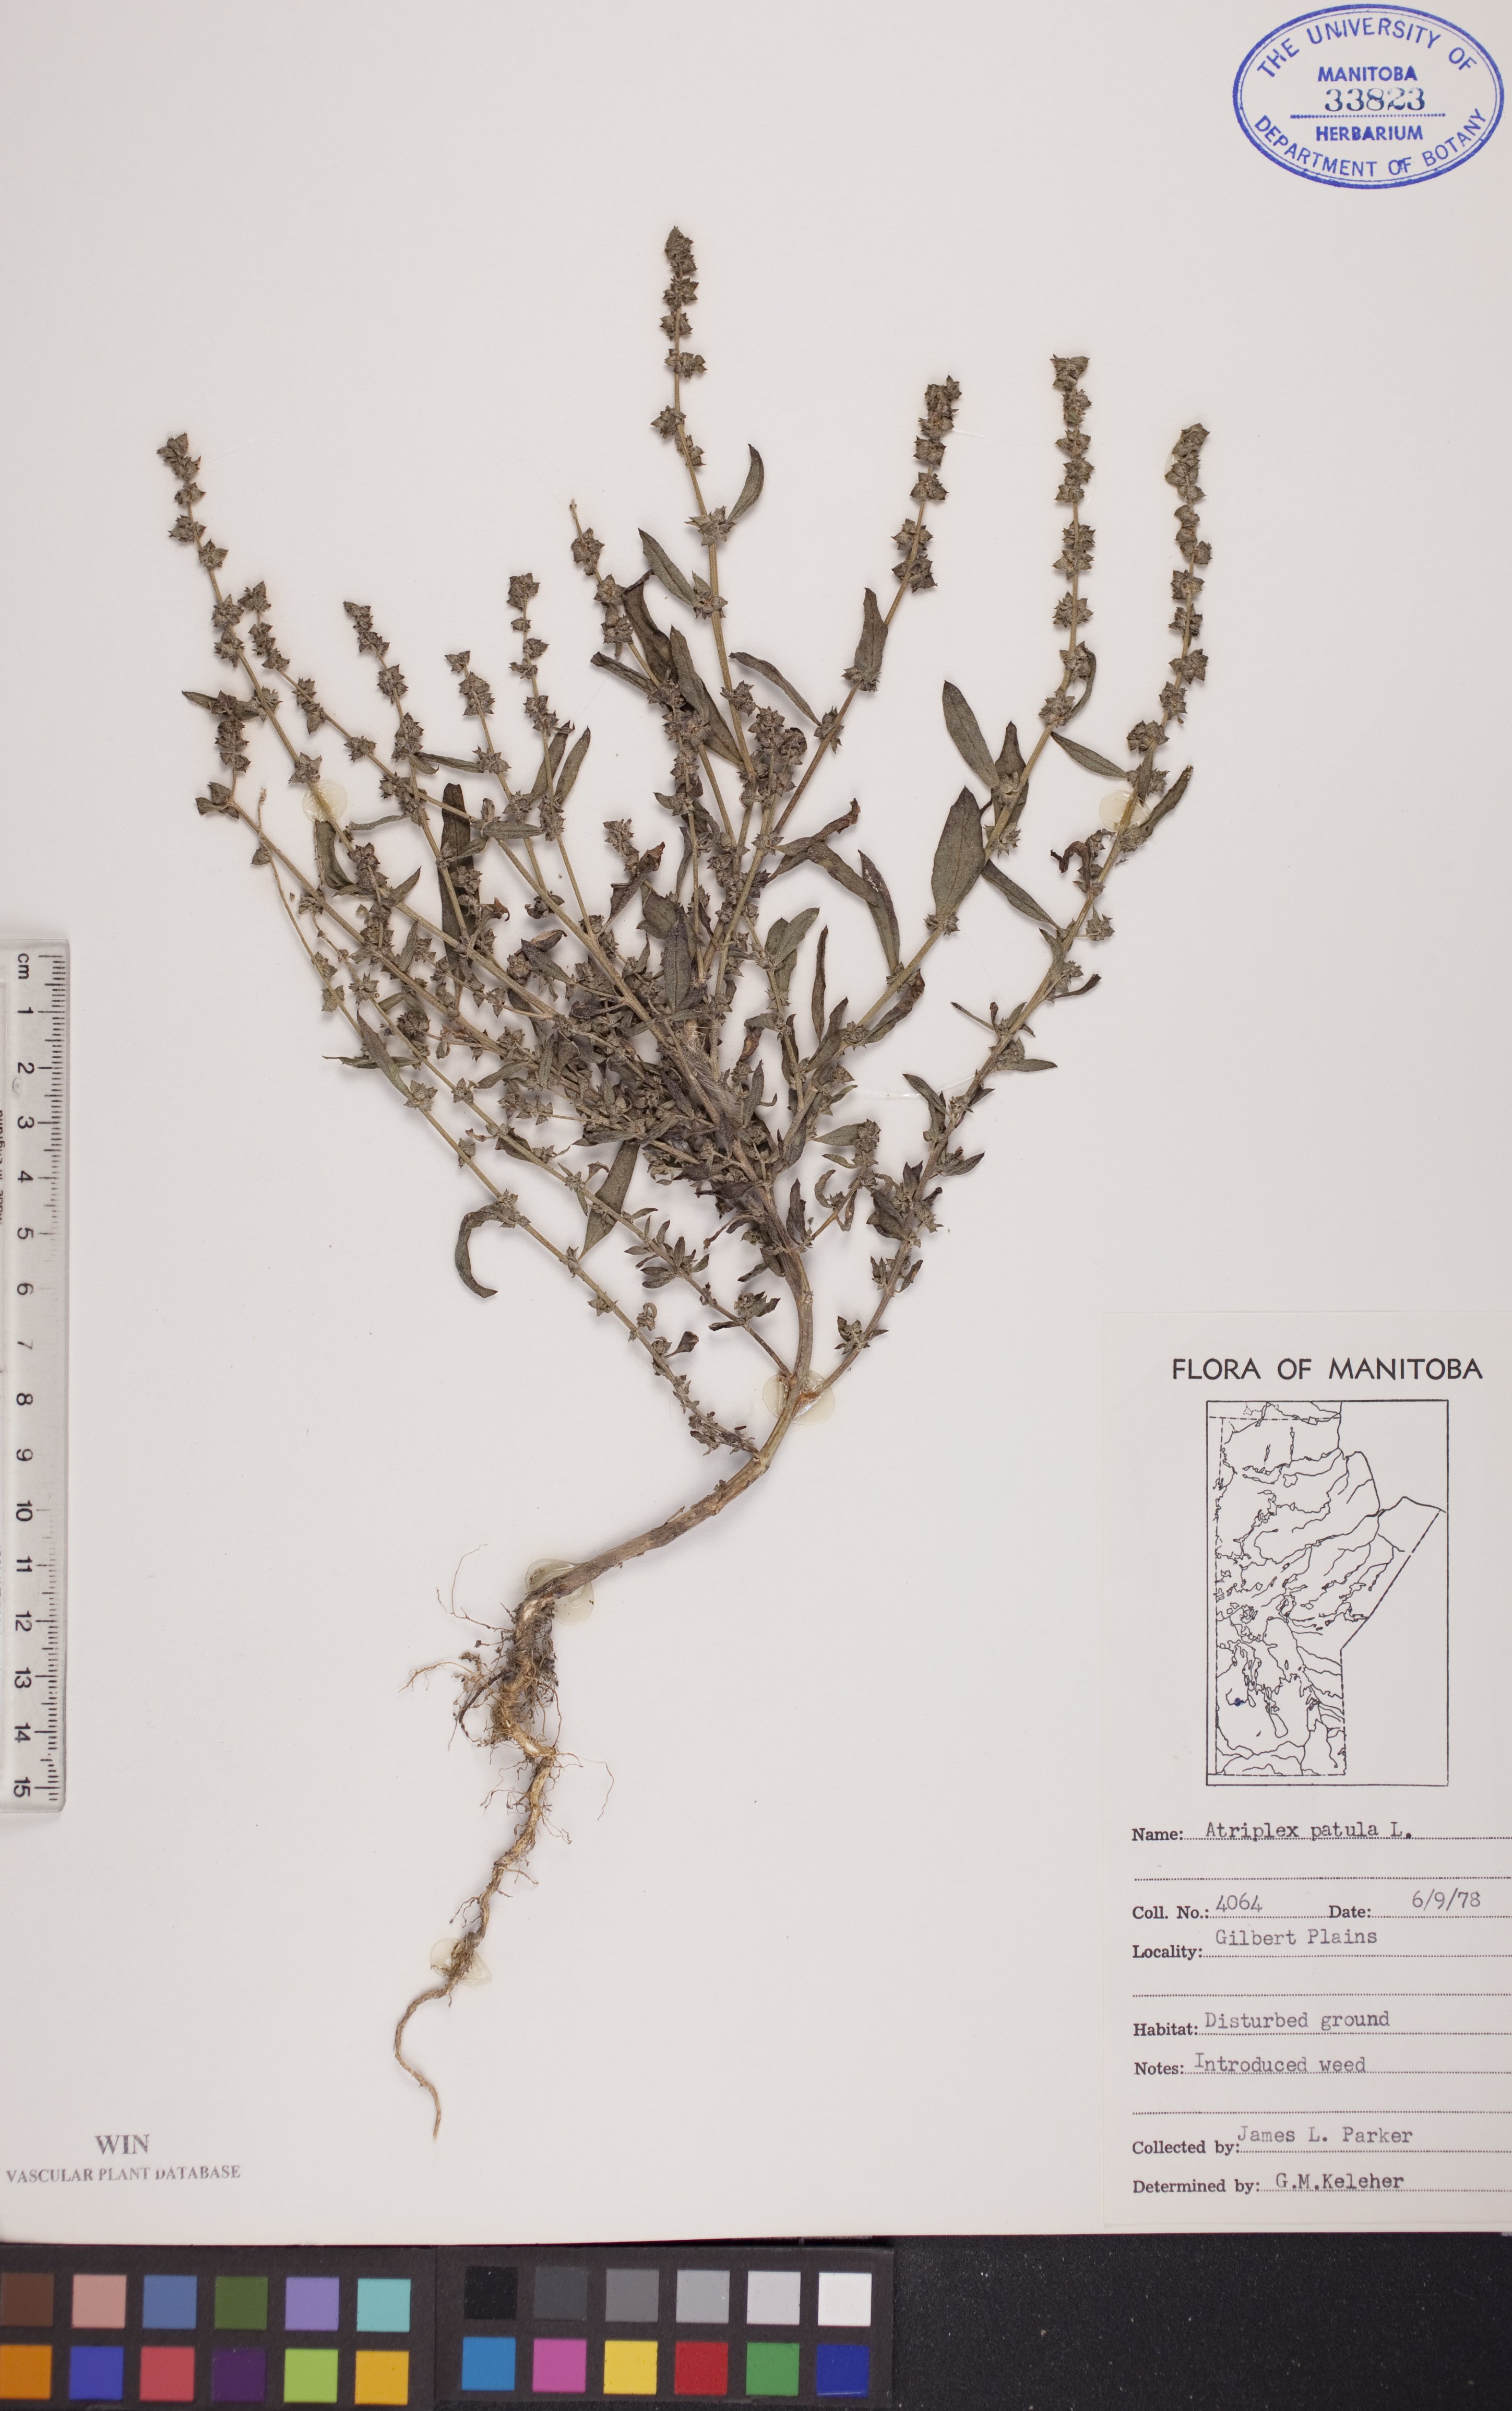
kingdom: Plantae
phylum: Tracheophyta
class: Magnoliopsida
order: Caryophyllales
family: Amaranthaceae
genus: Atriplex
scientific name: Atriplex patula
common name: Common orache
